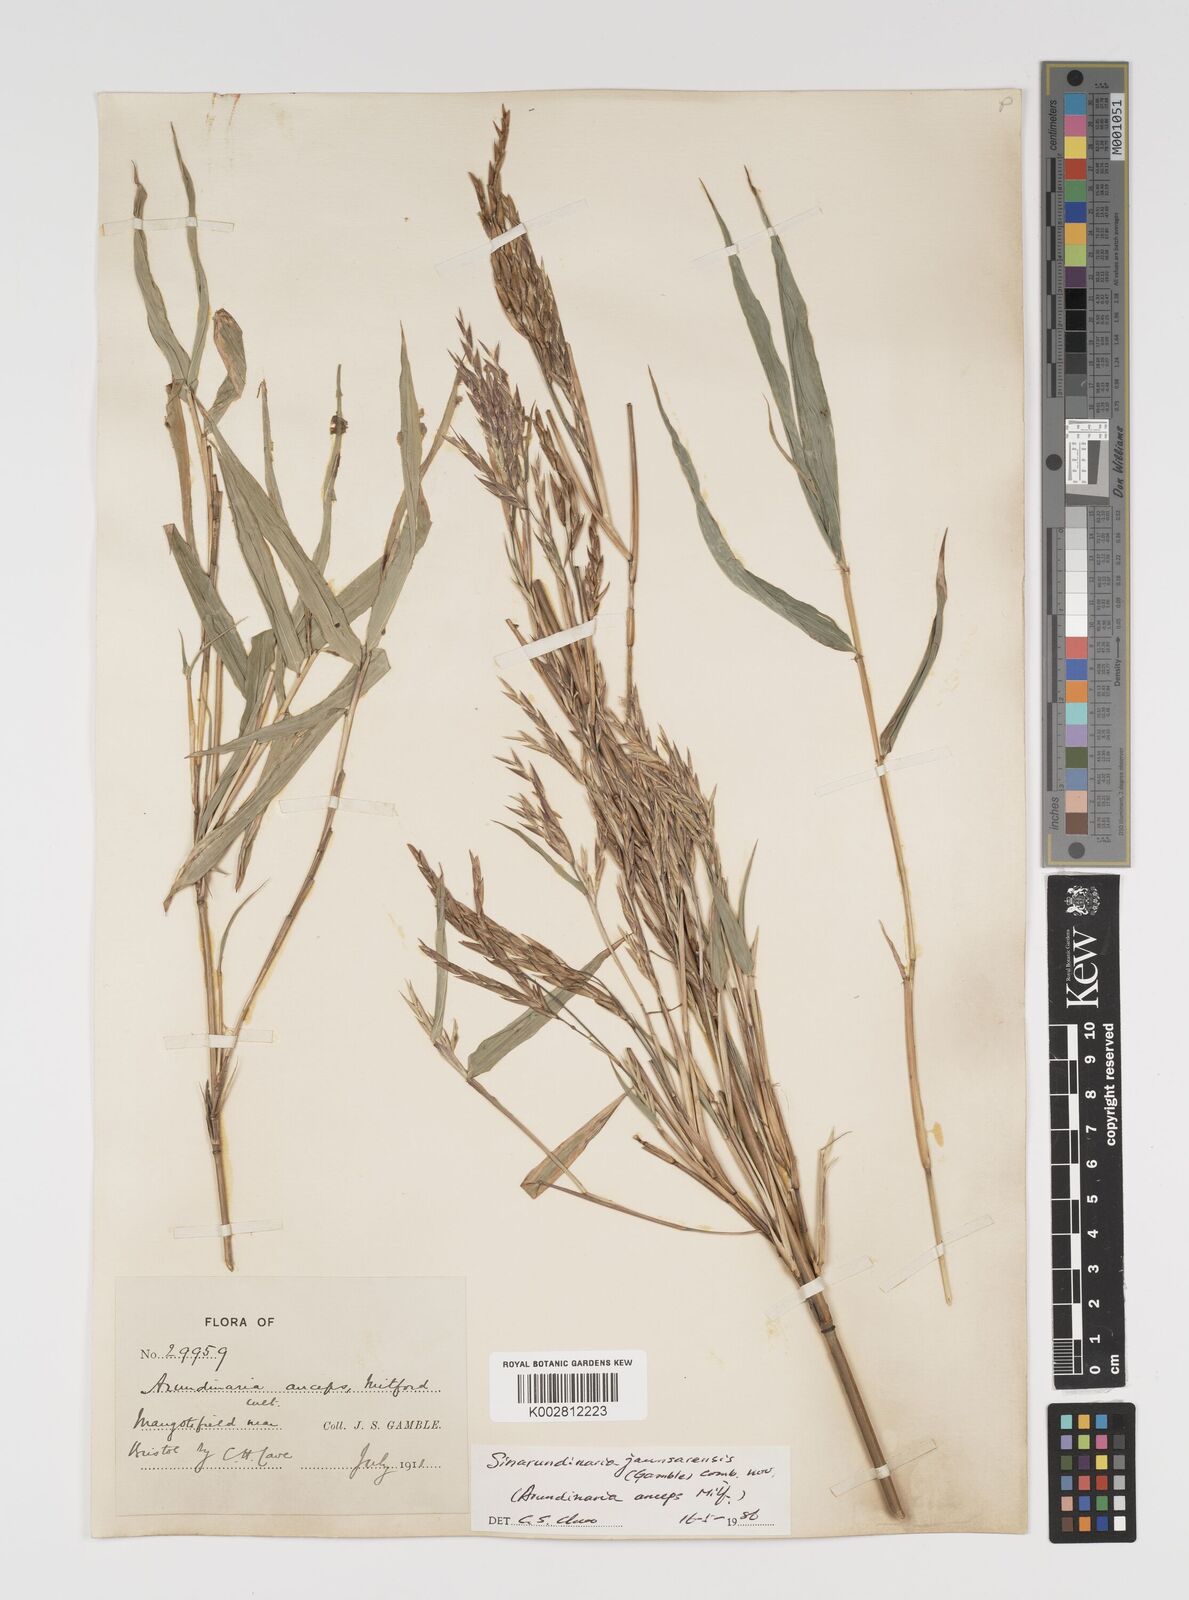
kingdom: Plantae
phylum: Tracheophyta
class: Liliopsida
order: Poales
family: Poaceae
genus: Yushania
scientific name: Yushania anceps
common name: Indian fountain-bamboo
